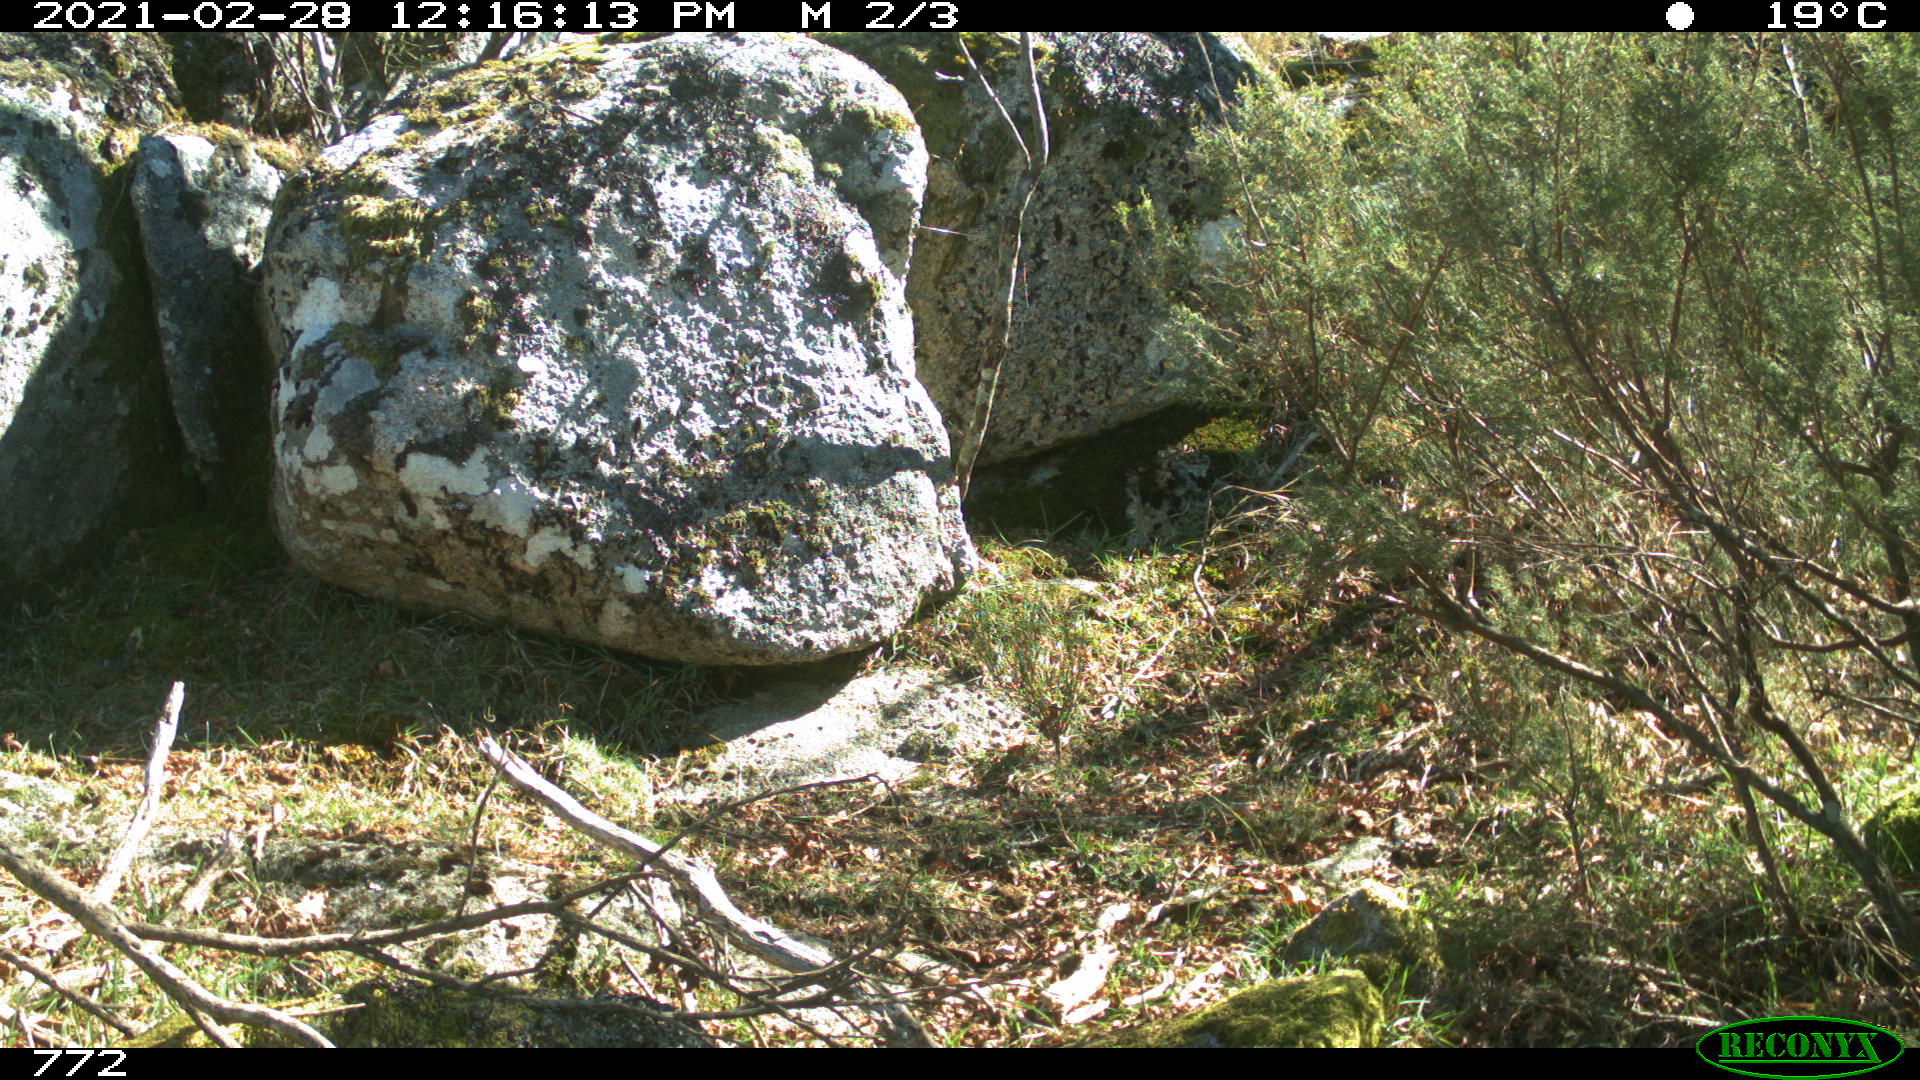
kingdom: Animalia
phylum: Chordata
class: Mammalia
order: Carnivora
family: Canidae
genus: Vulpes
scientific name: Vulpes vulpes
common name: Red fox
